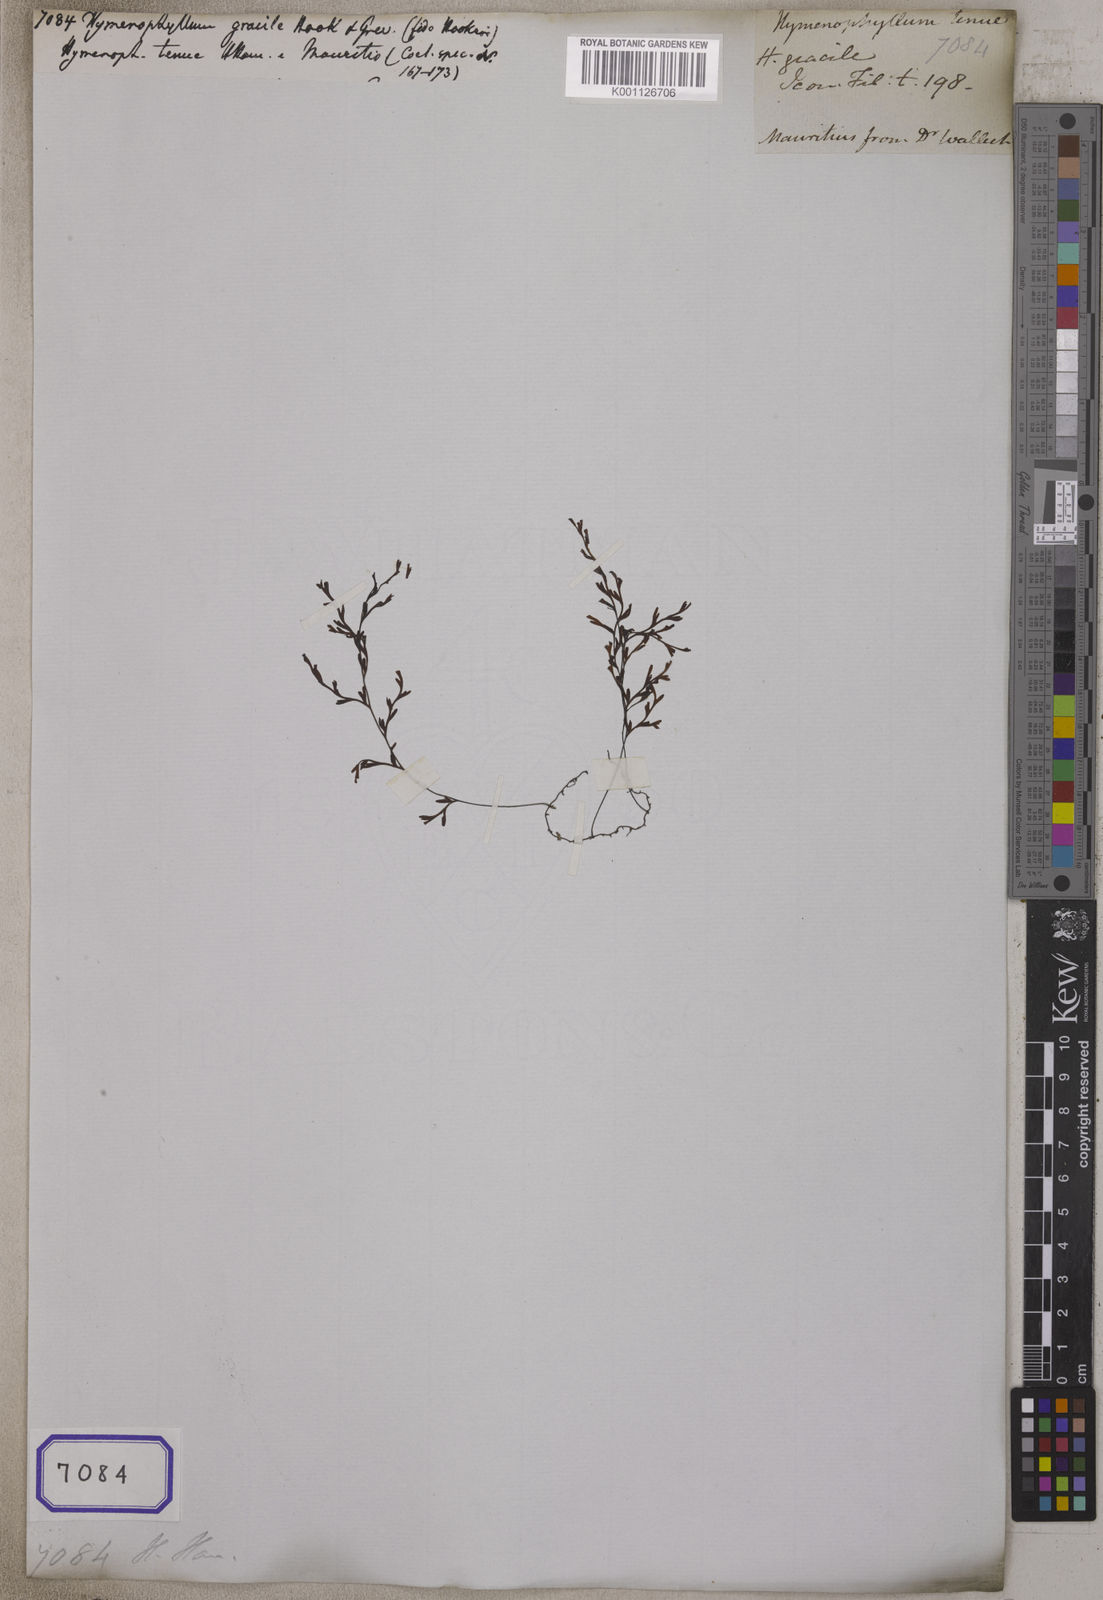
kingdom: Plantae
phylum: Tracheophyta
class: Polypodiopsida
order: Hymenophyllales
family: Hymenophyllaceae
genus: Hymenophyllum
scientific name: Hymenophyllum
